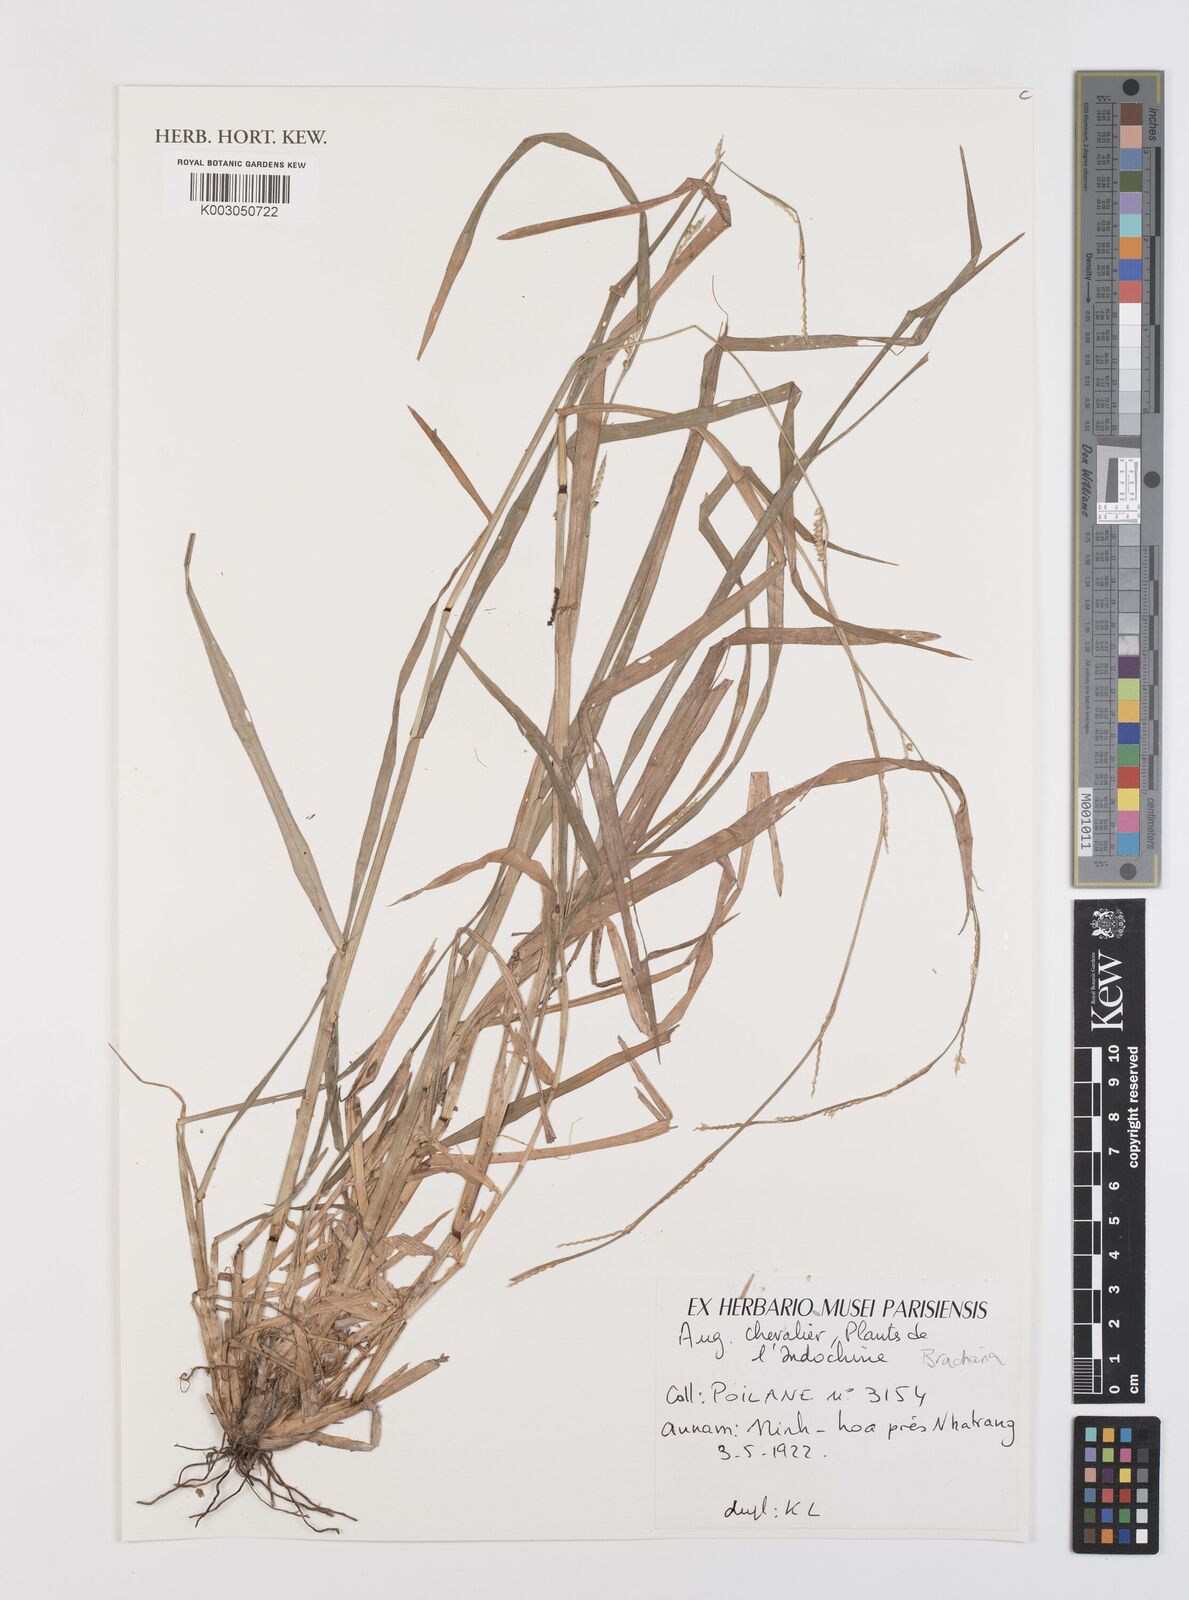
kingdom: Plantae
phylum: Tracheophyta
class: Liliopsida
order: Poales
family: Poaceae
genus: Brachiaria
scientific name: Brachiaria
